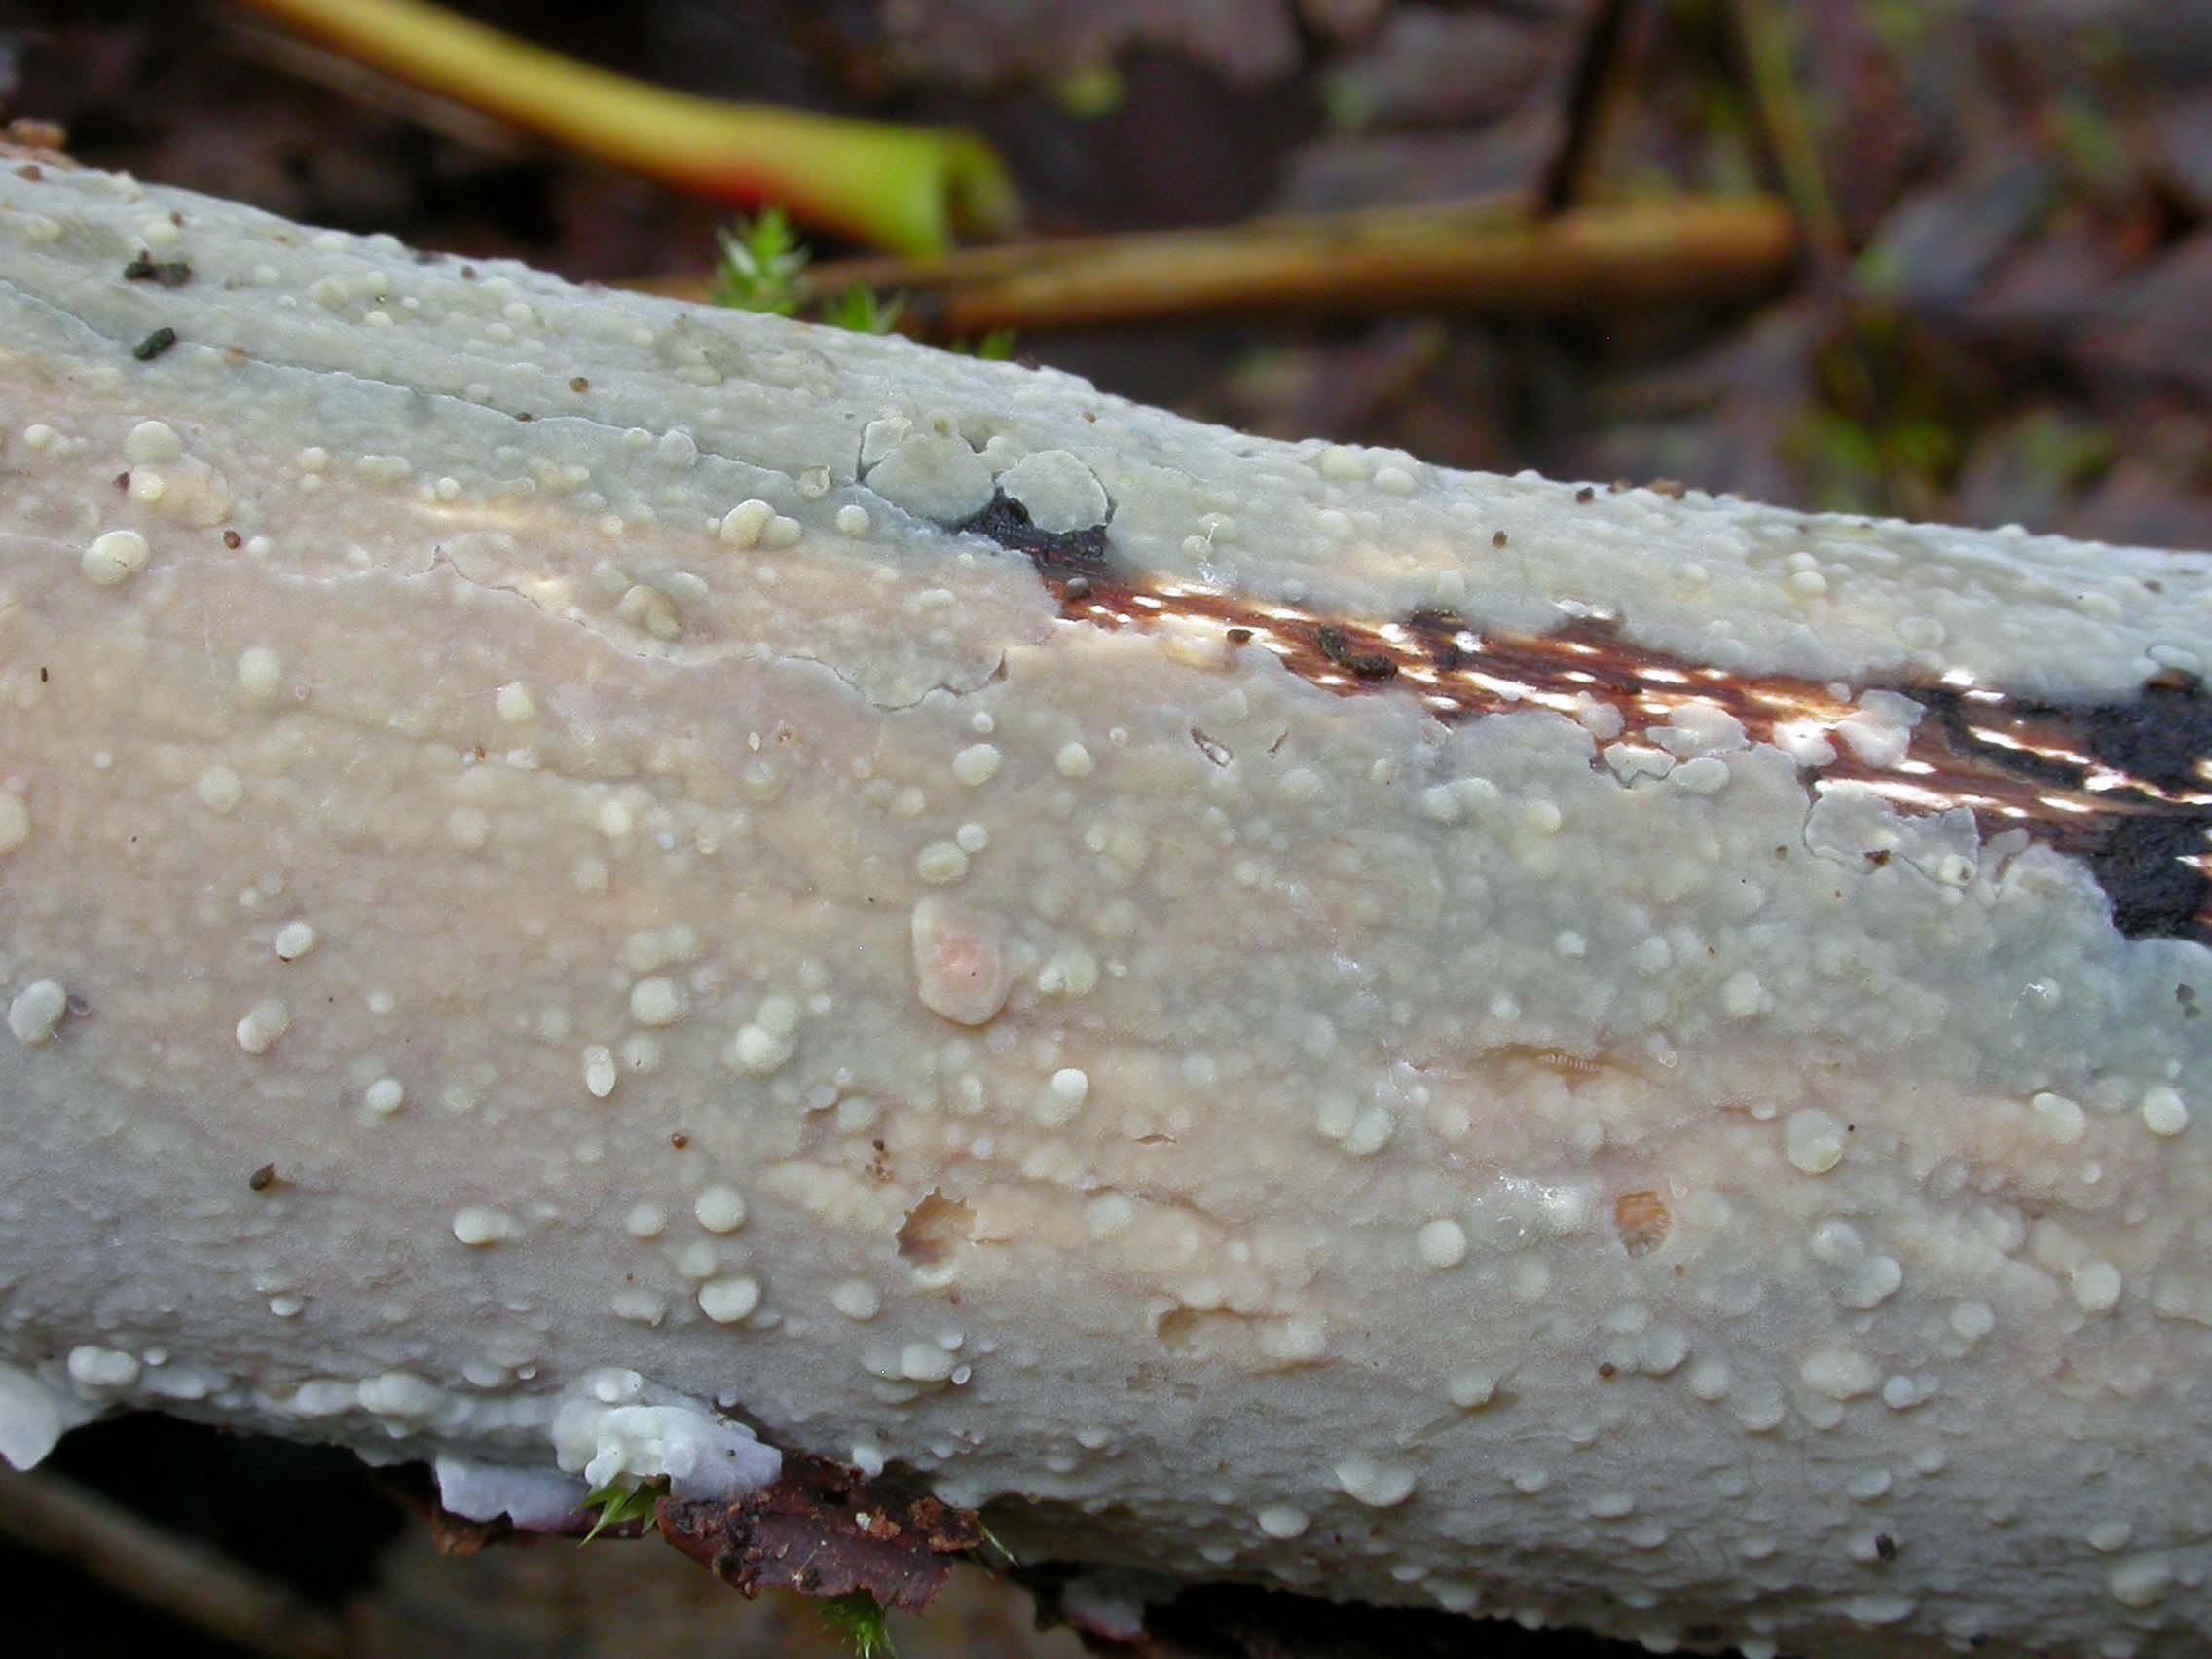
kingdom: Fungi
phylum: Basidiomycota
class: Agaricomycetes
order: Agaricales
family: Radulomycetaceae
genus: Radulomyces
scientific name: Radulomyces confluens
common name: glat naftalinskind
